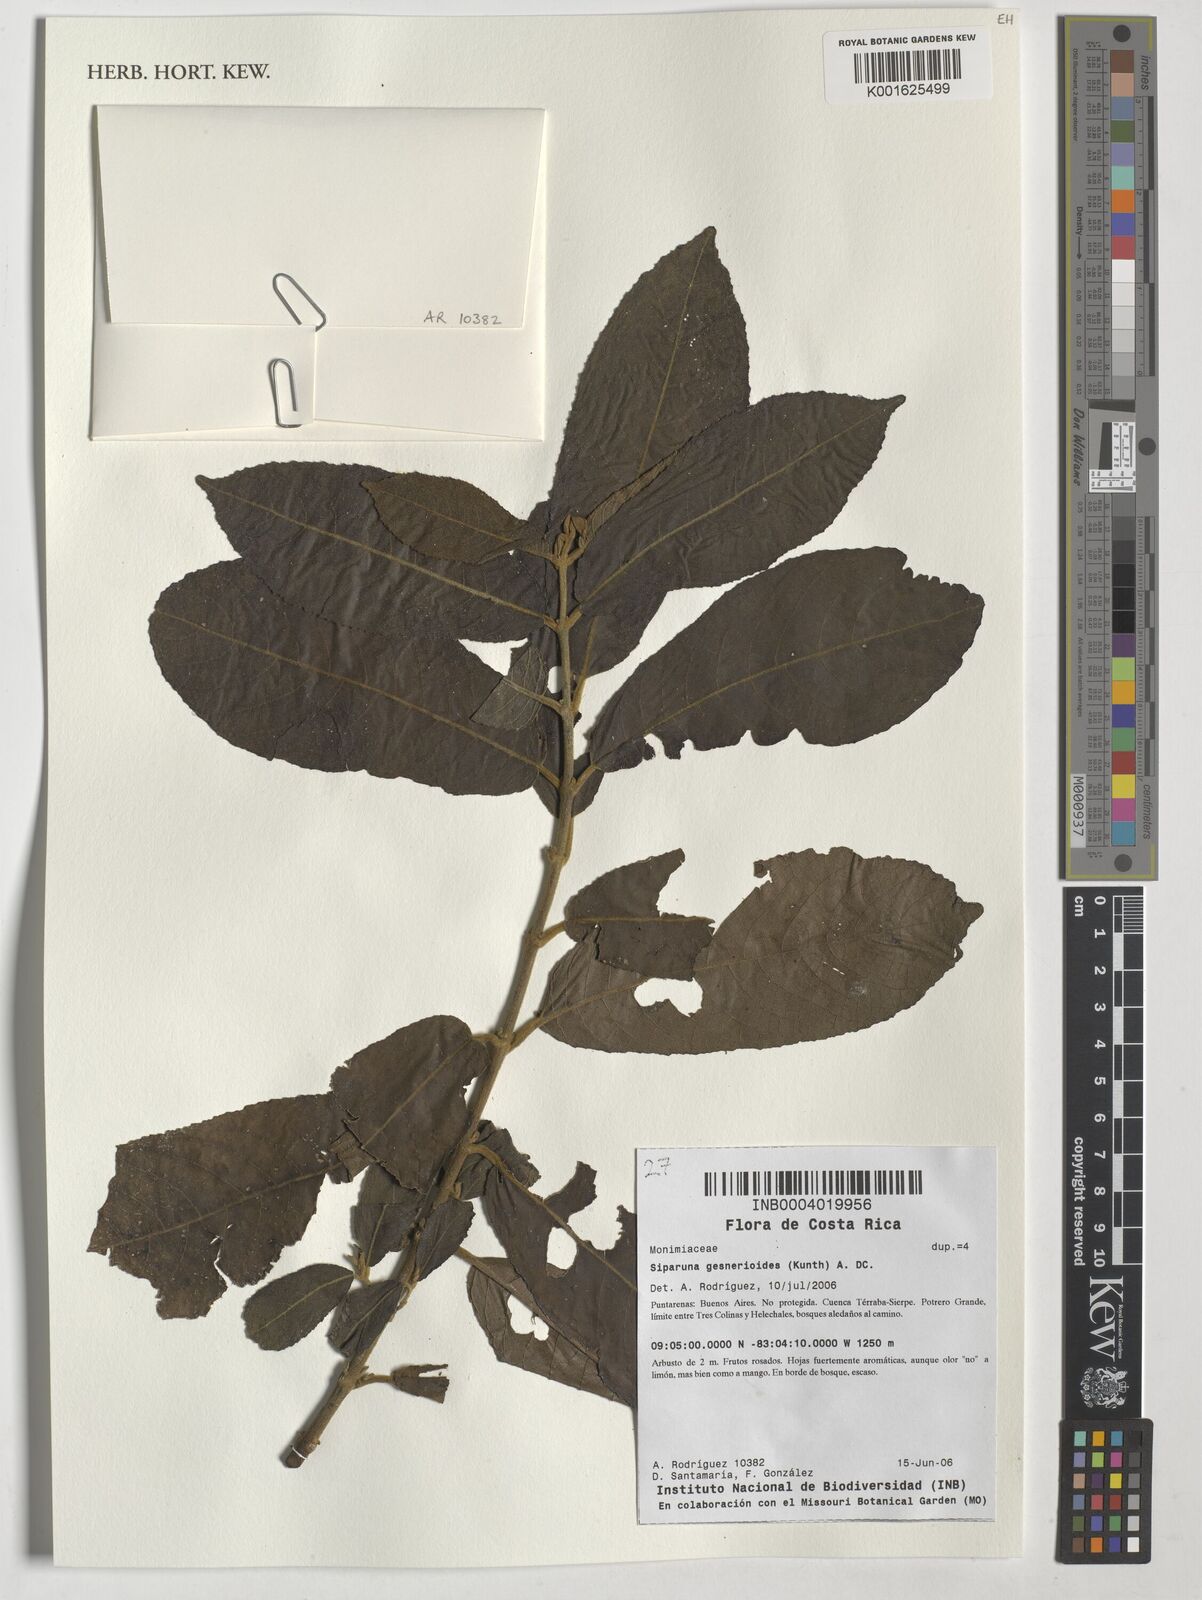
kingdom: Plantae
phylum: Tracheophyta
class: Magnoliopsida
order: Laurales
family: Siparunaceae
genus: Siparuna
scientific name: Siparuna gesnerioides
